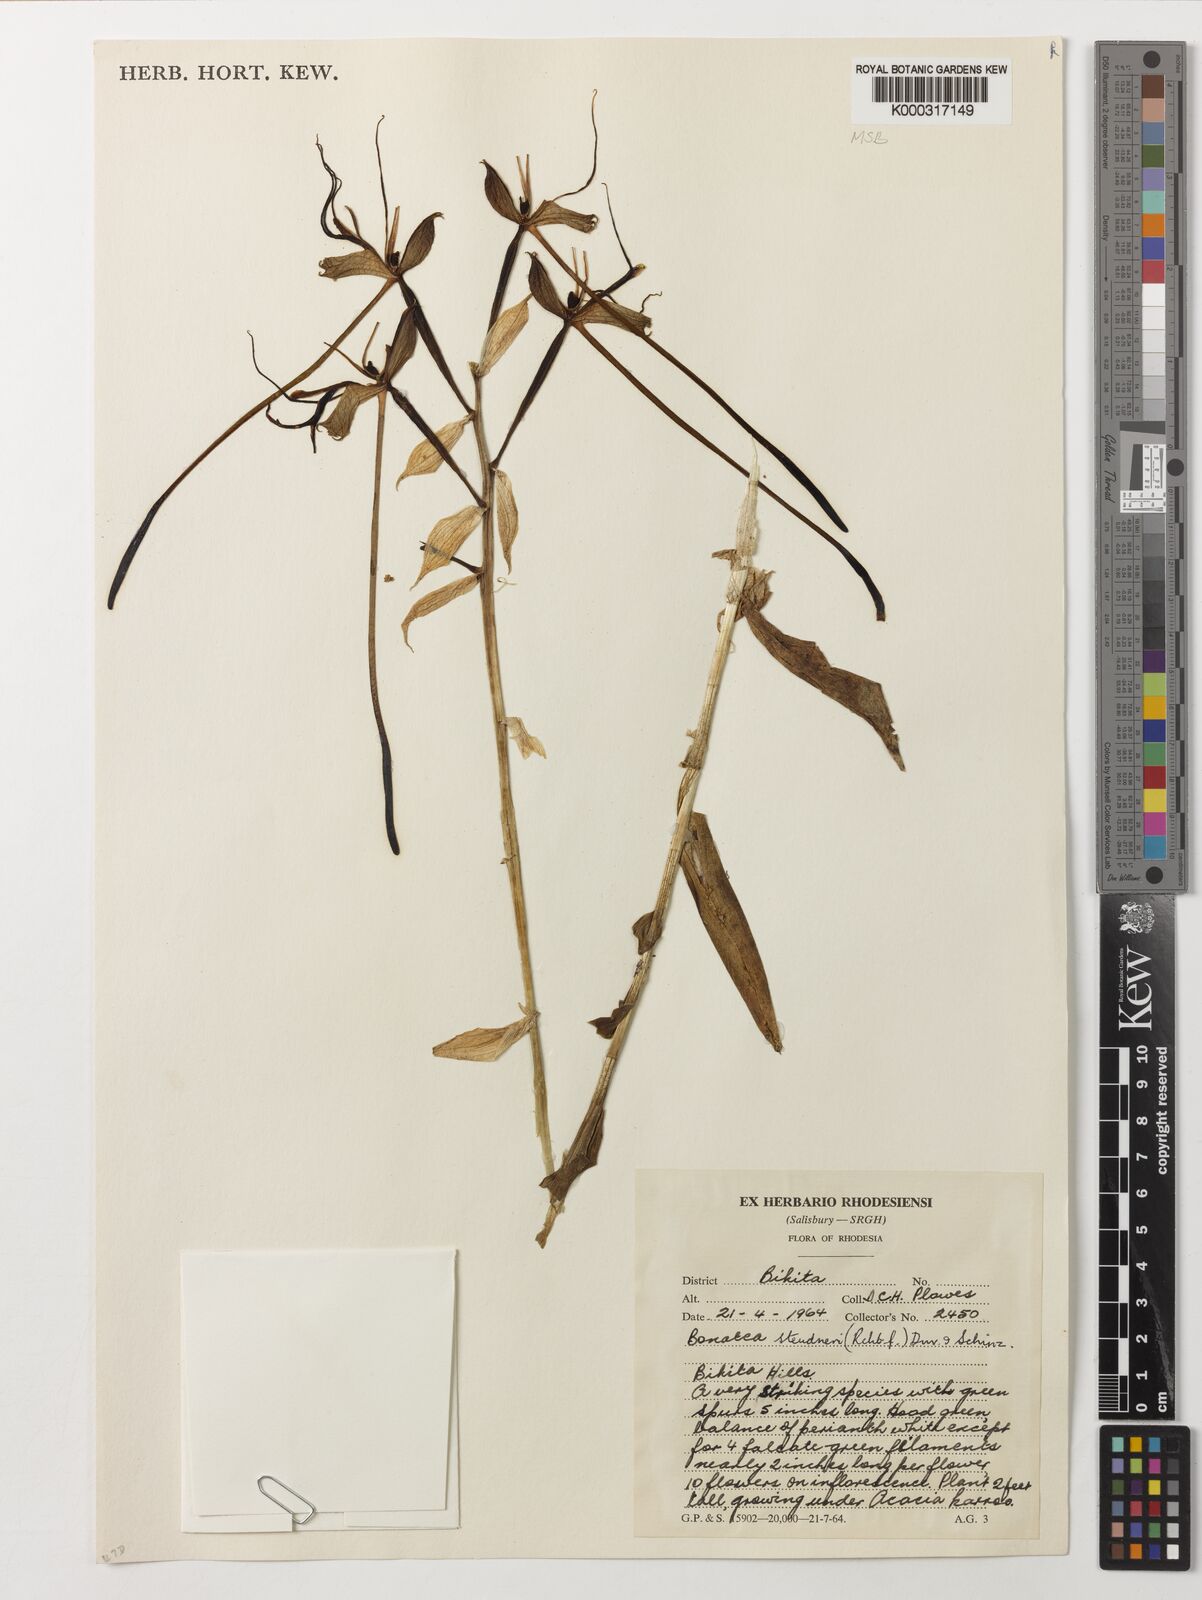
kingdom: Plantae
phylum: Tracheophyta
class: Liliopsida
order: Asparagales
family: Orchidaceae
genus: Bonatea
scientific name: Bonatea steudneri
